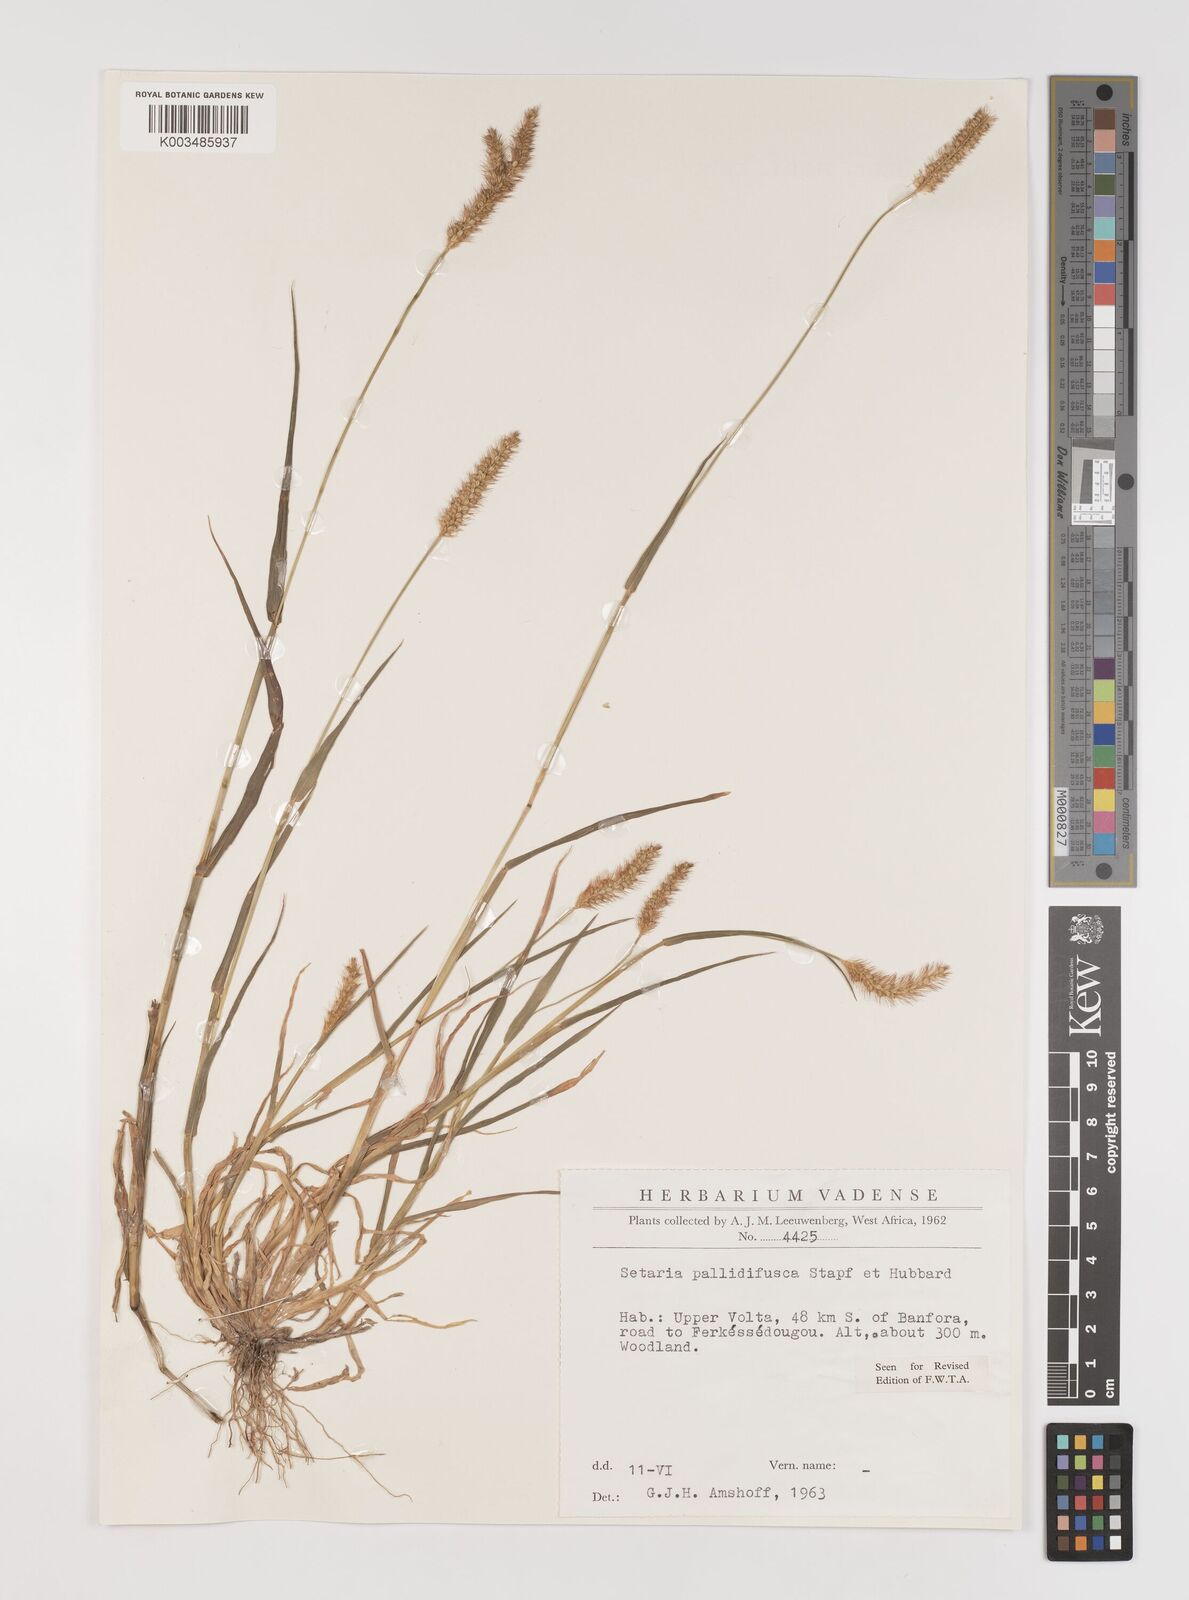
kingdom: Plantae
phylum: Tracheophyta
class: Liliopsida
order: Poales
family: Poaceae
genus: Setaria
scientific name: Setaria pumila
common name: Yellow bristle-grass
